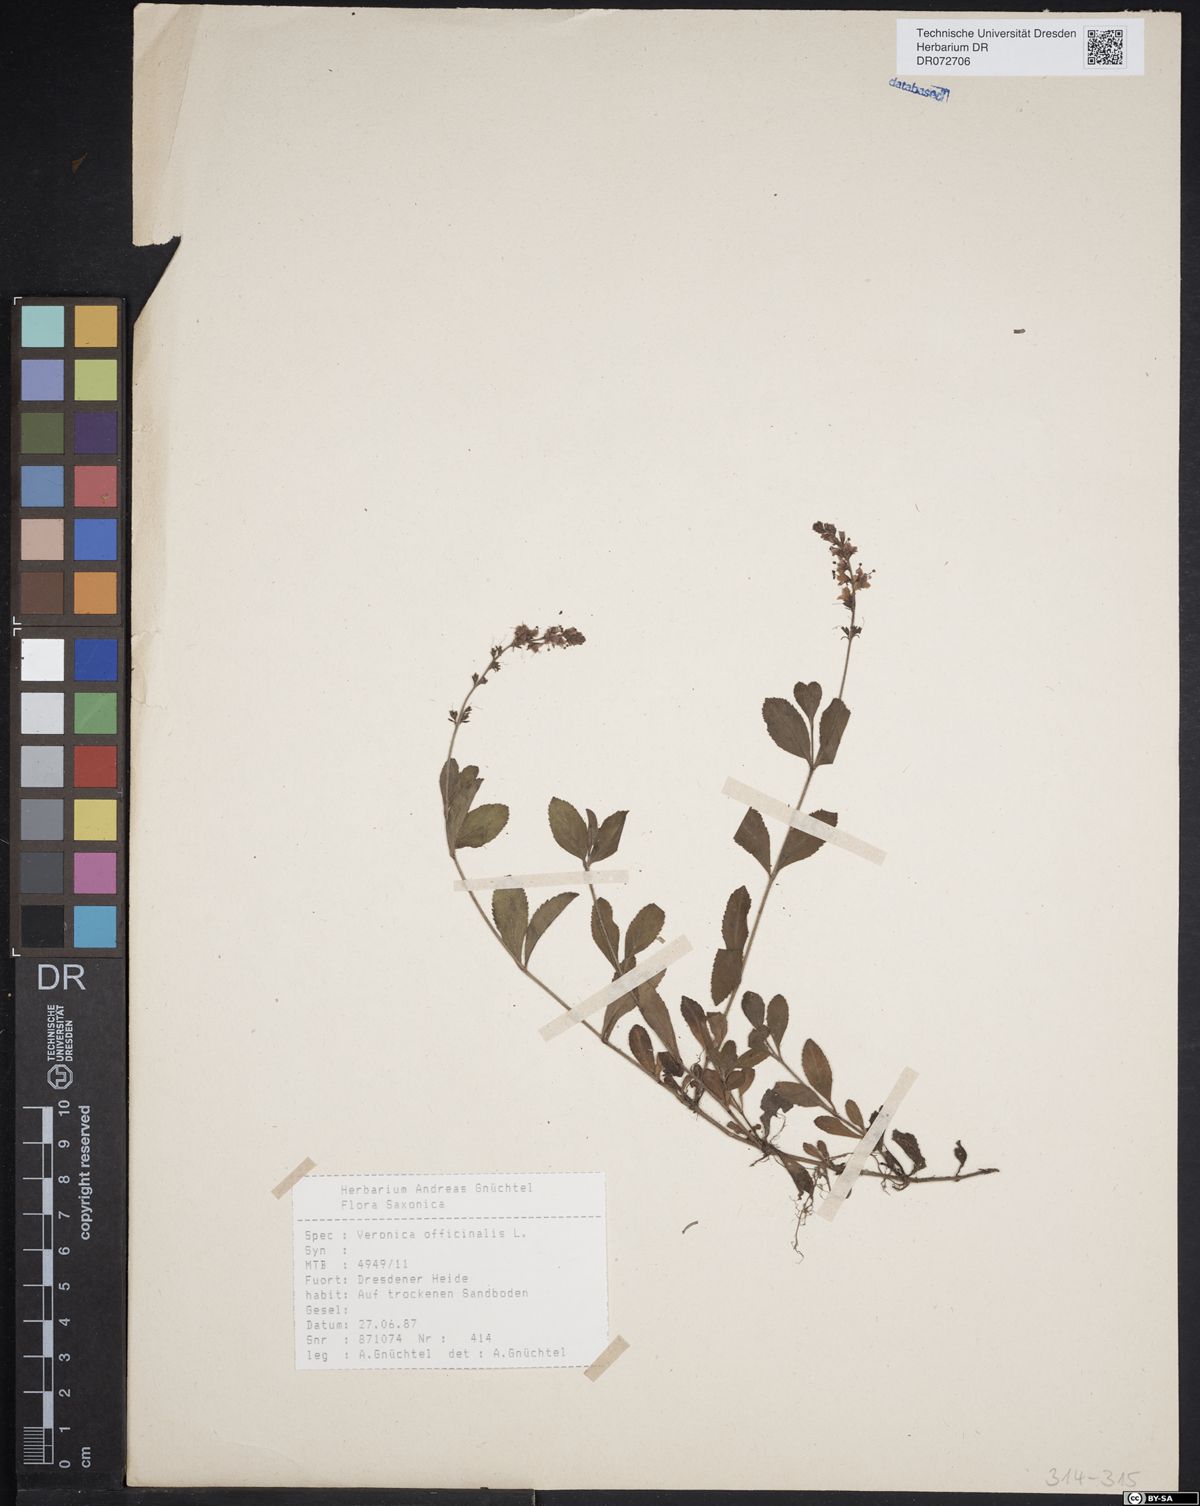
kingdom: Plantae
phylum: Tracheophyta
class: Magnoliopsida
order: Lamiales
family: Plantaginaceae
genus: Veronica
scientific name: Veronica officinalis
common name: Common speedwell
